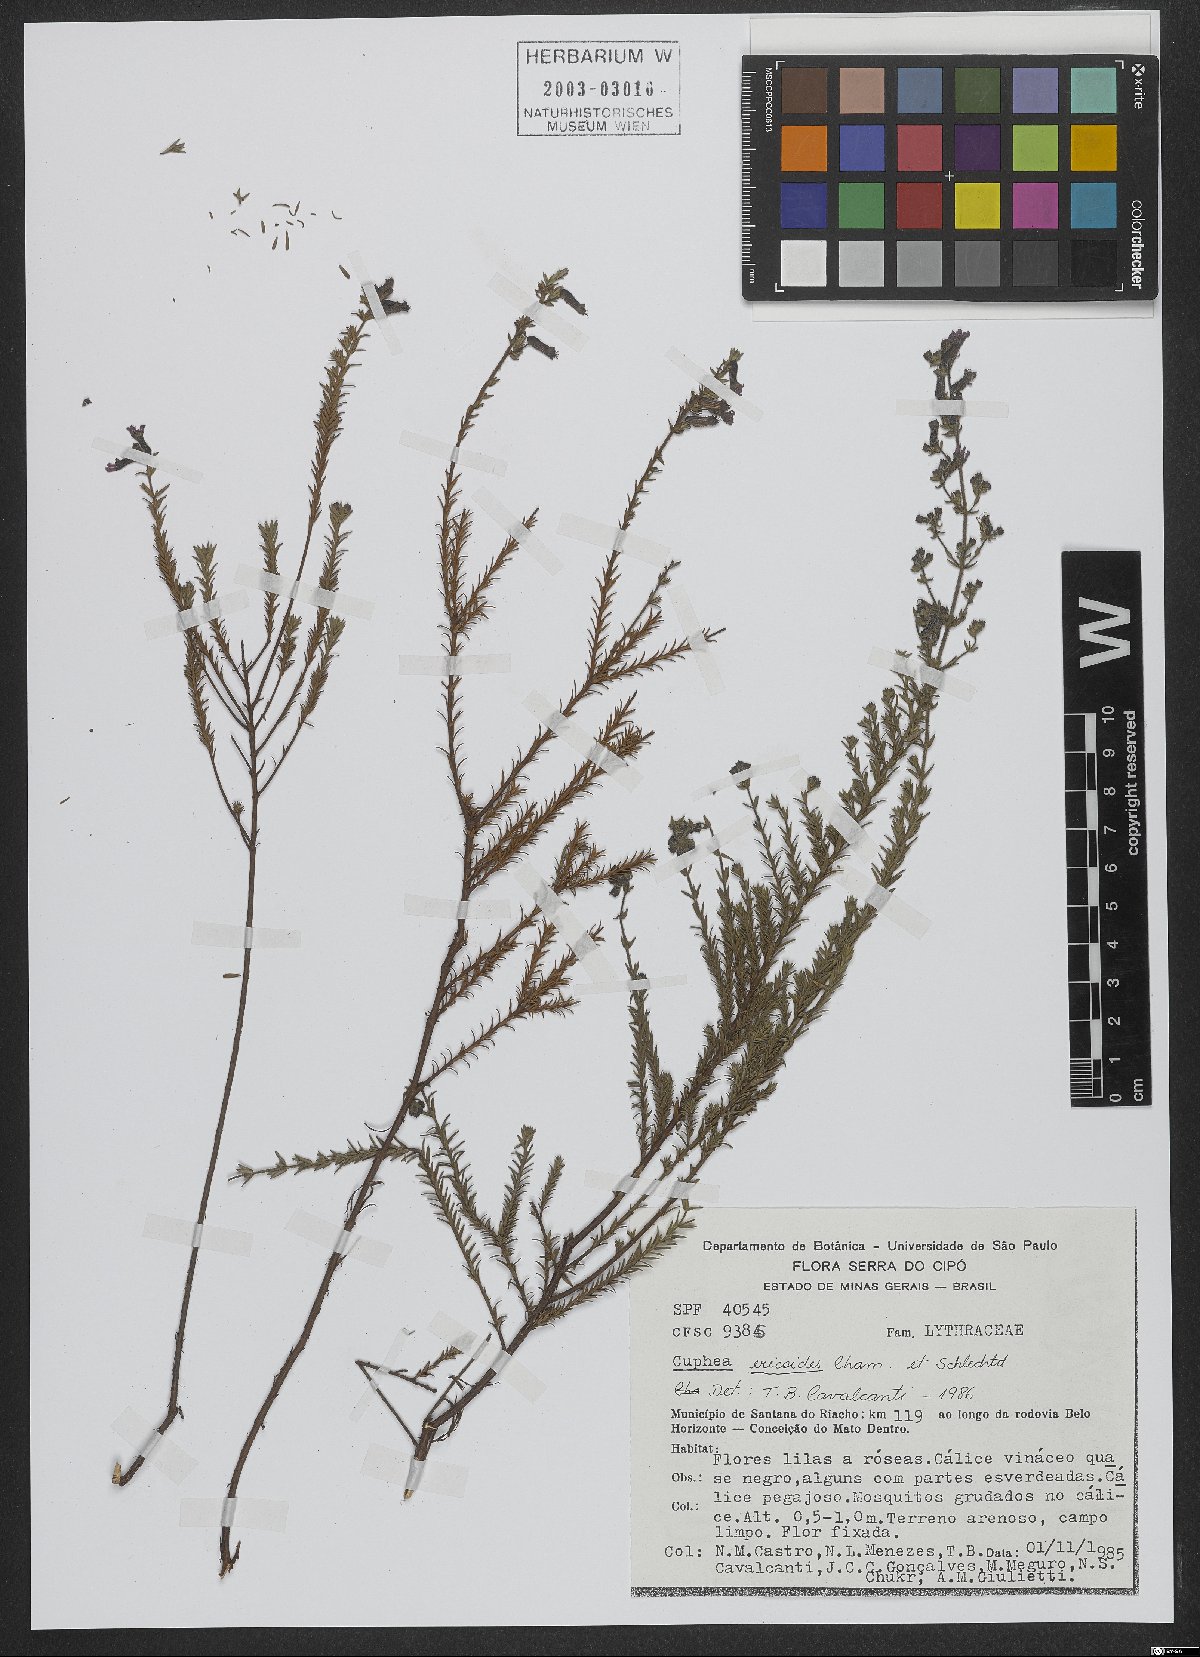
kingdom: Plantae
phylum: Tracheophyta
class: Magnoliopsida
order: Myrtales
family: Lythraceae
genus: Cuphea
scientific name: Cuphea ericoides
